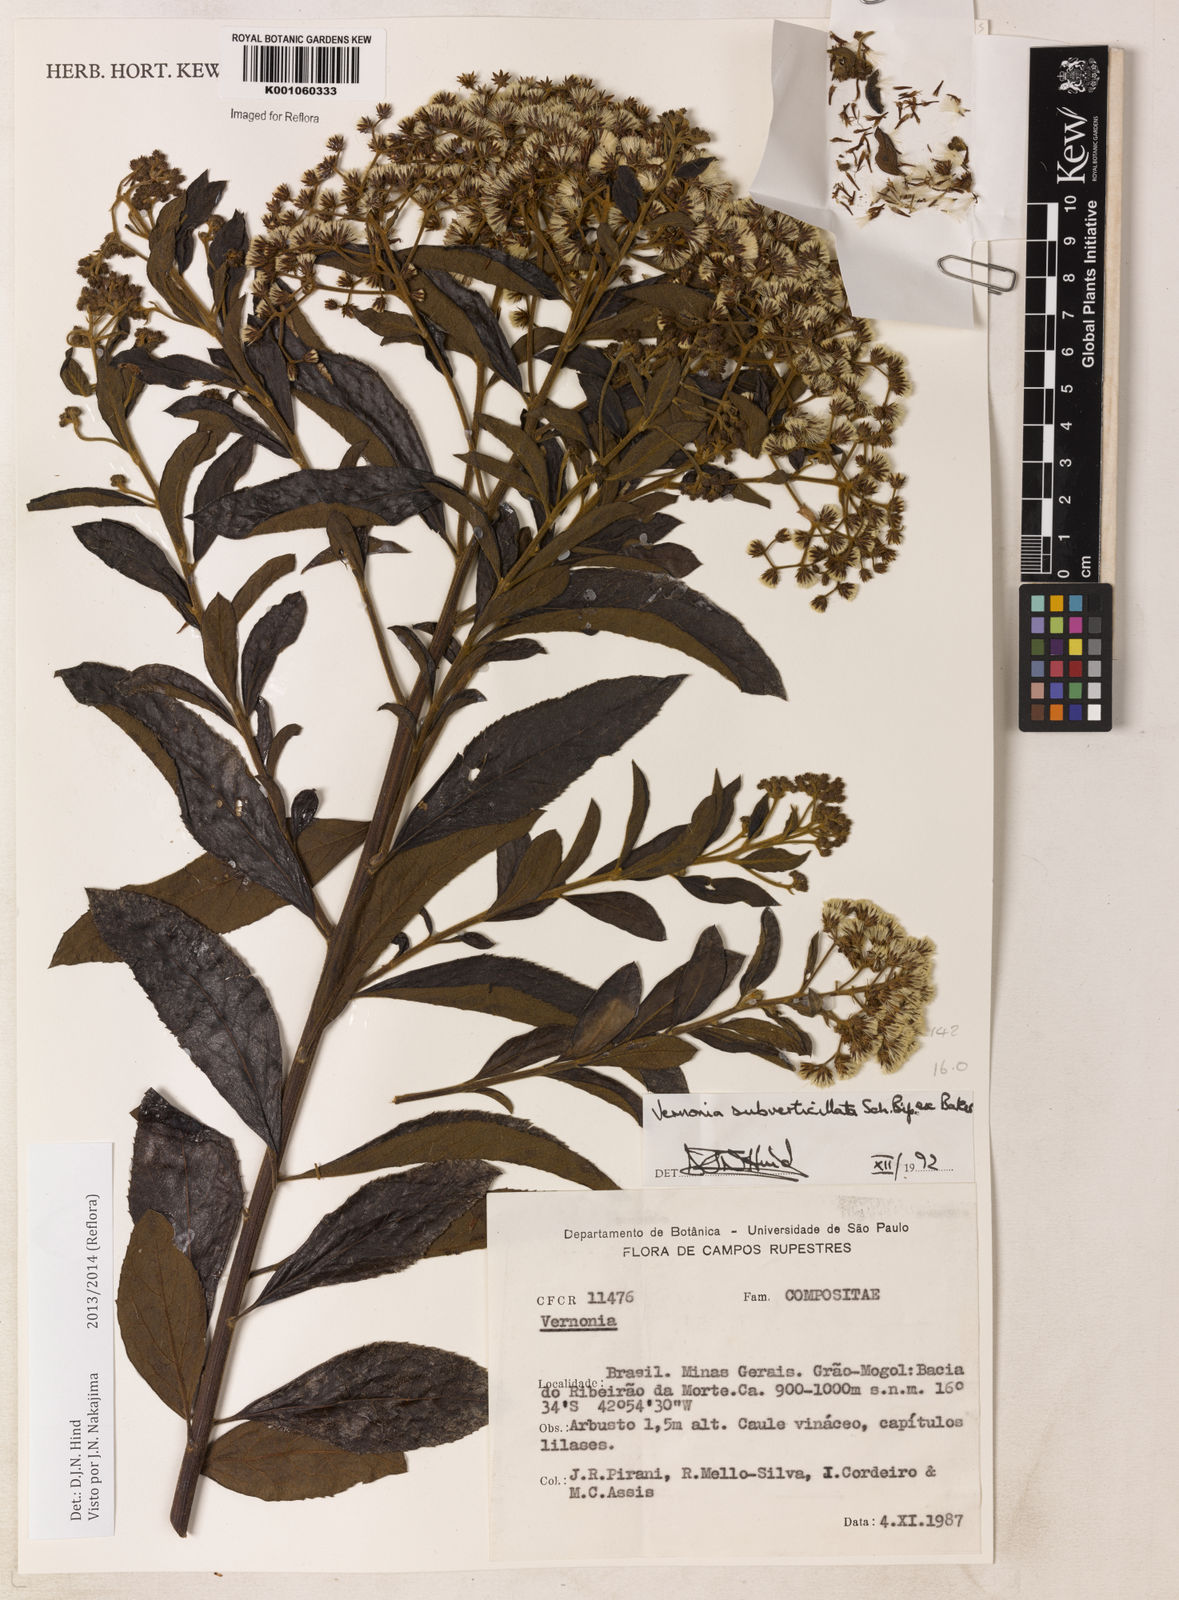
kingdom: Plantae
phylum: Tracheophyta
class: Magnoliopsida
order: Asterales
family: Asteraceae
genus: Vernonanthura
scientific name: Vernonanthura subverticillata
